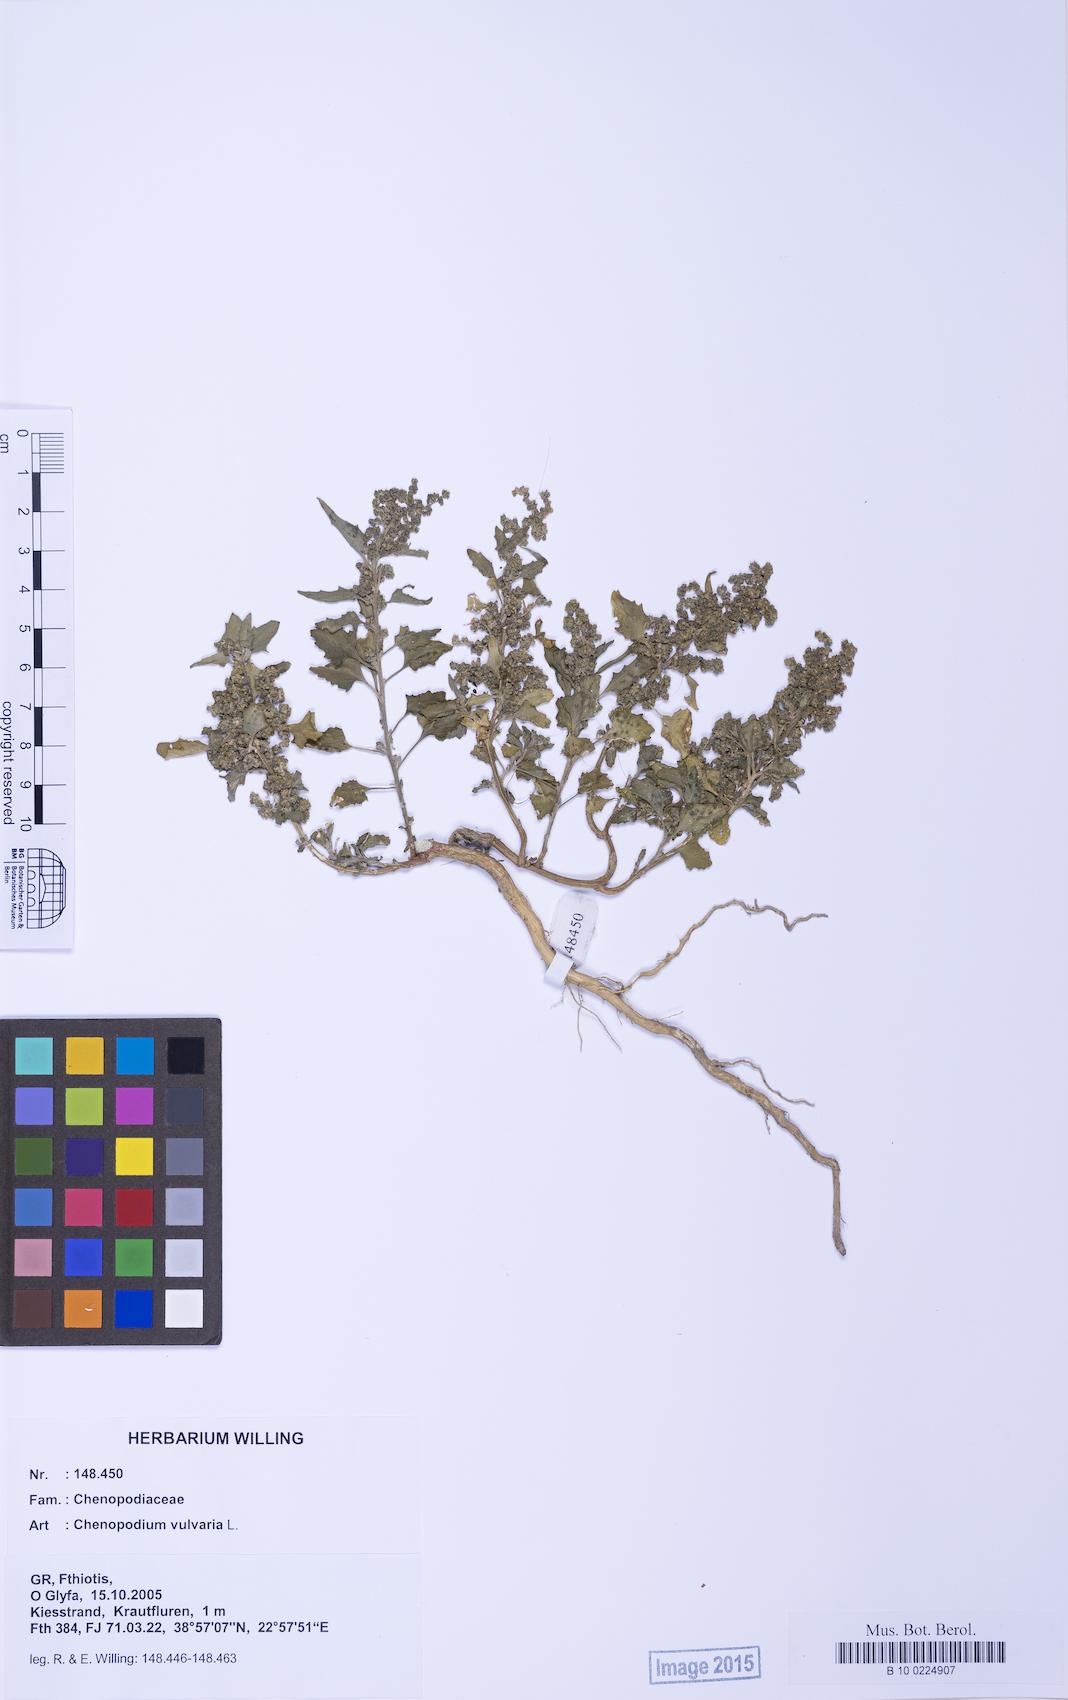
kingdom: Plantae
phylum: Tracheophyta
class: Magnoliopsida
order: Caryophyllales
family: Amaranthaceae
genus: Chenopodium
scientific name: Chenopodium vulvaria
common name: Stinking goosefoot
